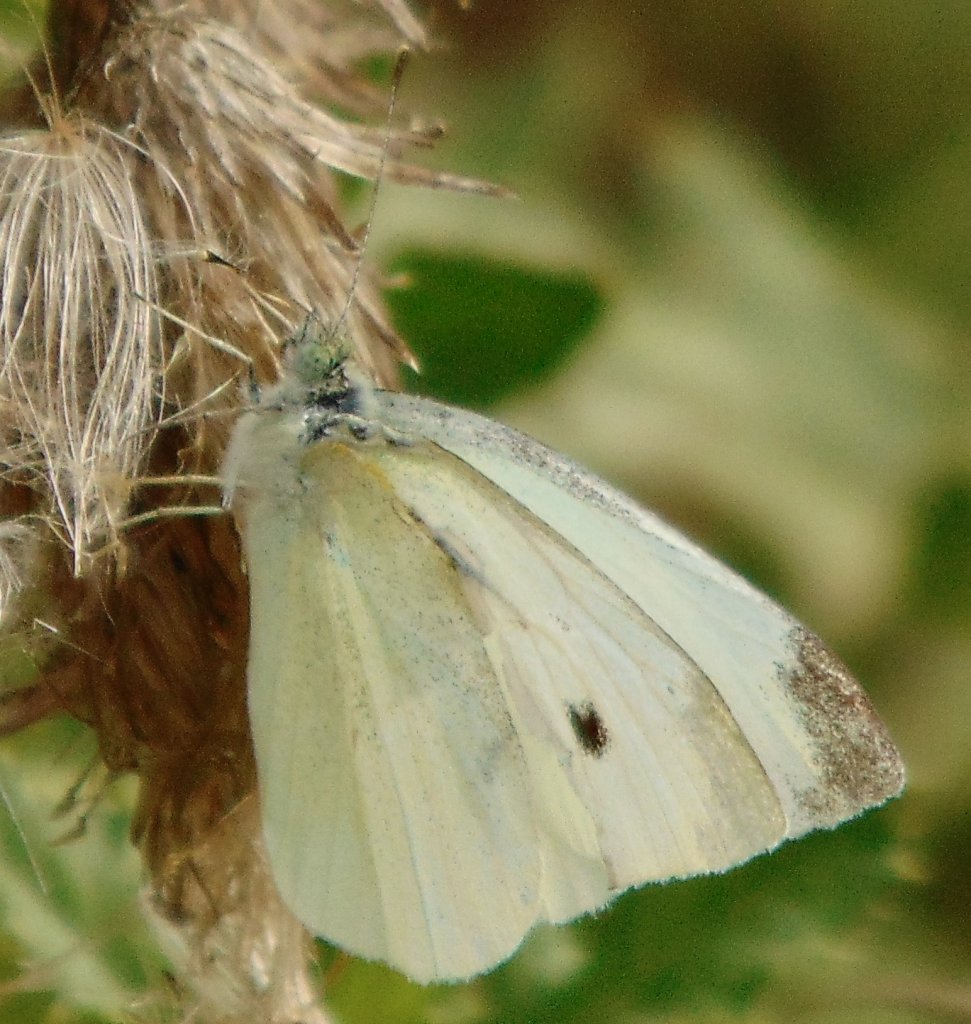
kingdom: Animalia
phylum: Arthropoda
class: Insecta
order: Lepidoptera
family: Pieridae
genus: Pieris
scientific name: Pieris rapae
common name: Cabbage White
